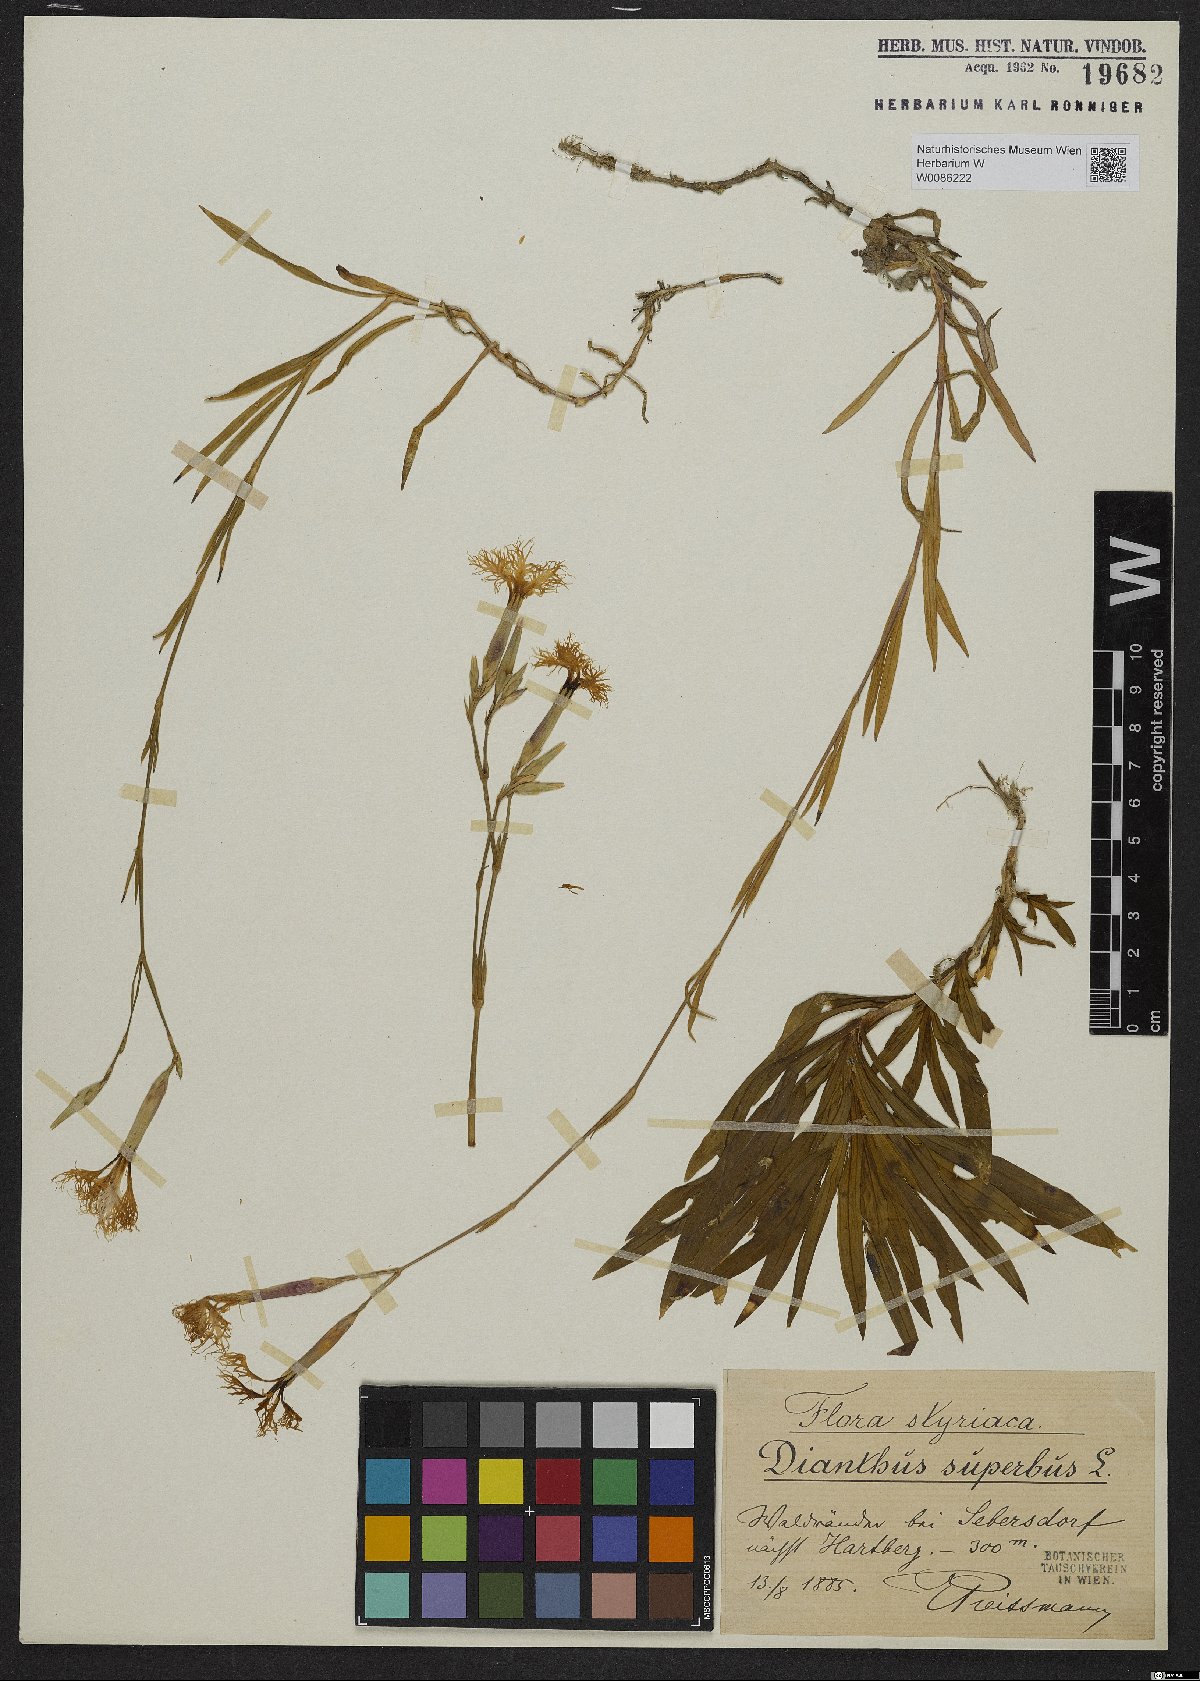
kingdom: Plantae
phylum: Tracheophyta
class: Magnoliopsida
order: Caryophyllales
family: Caryophyllaceae
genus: Dianthus
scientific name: Dianthus superbus
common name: Fringed pink
